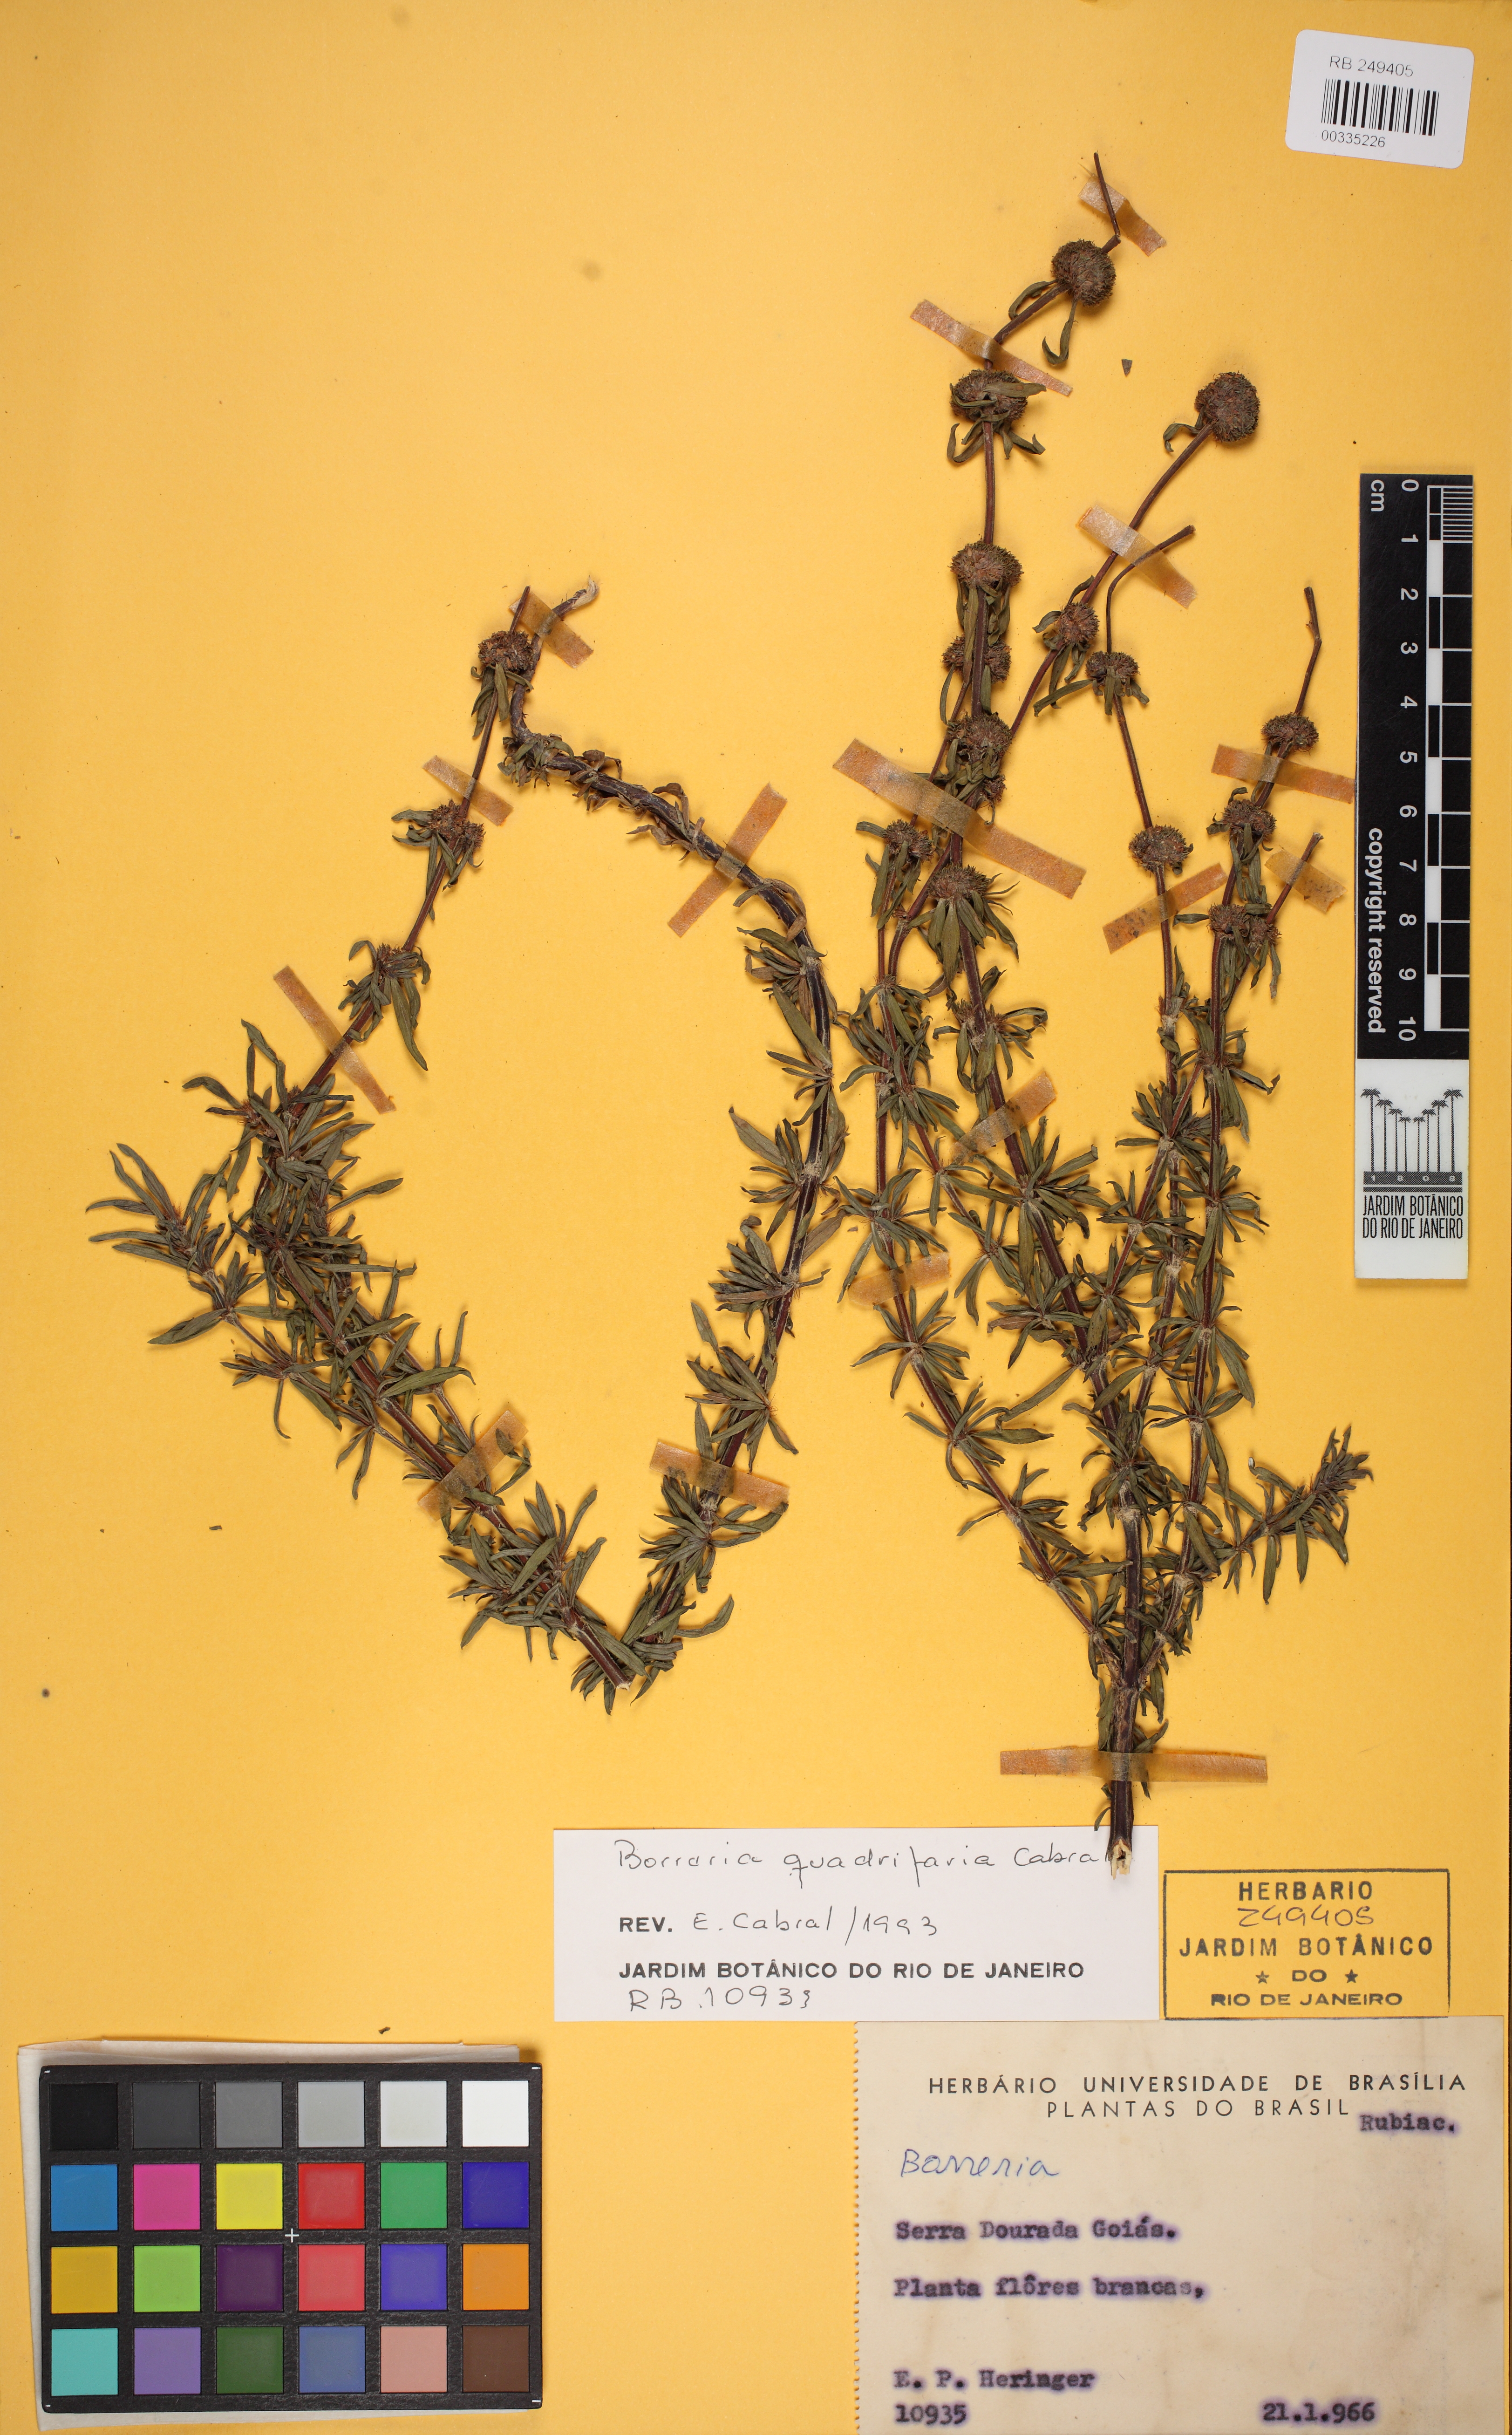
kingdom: Plantae
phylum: Tracheophyta
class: Magnoliopsida
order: Gentianales
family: Rubiaceae
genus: Spermacoce
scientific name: Spermacoce quadrifaria
